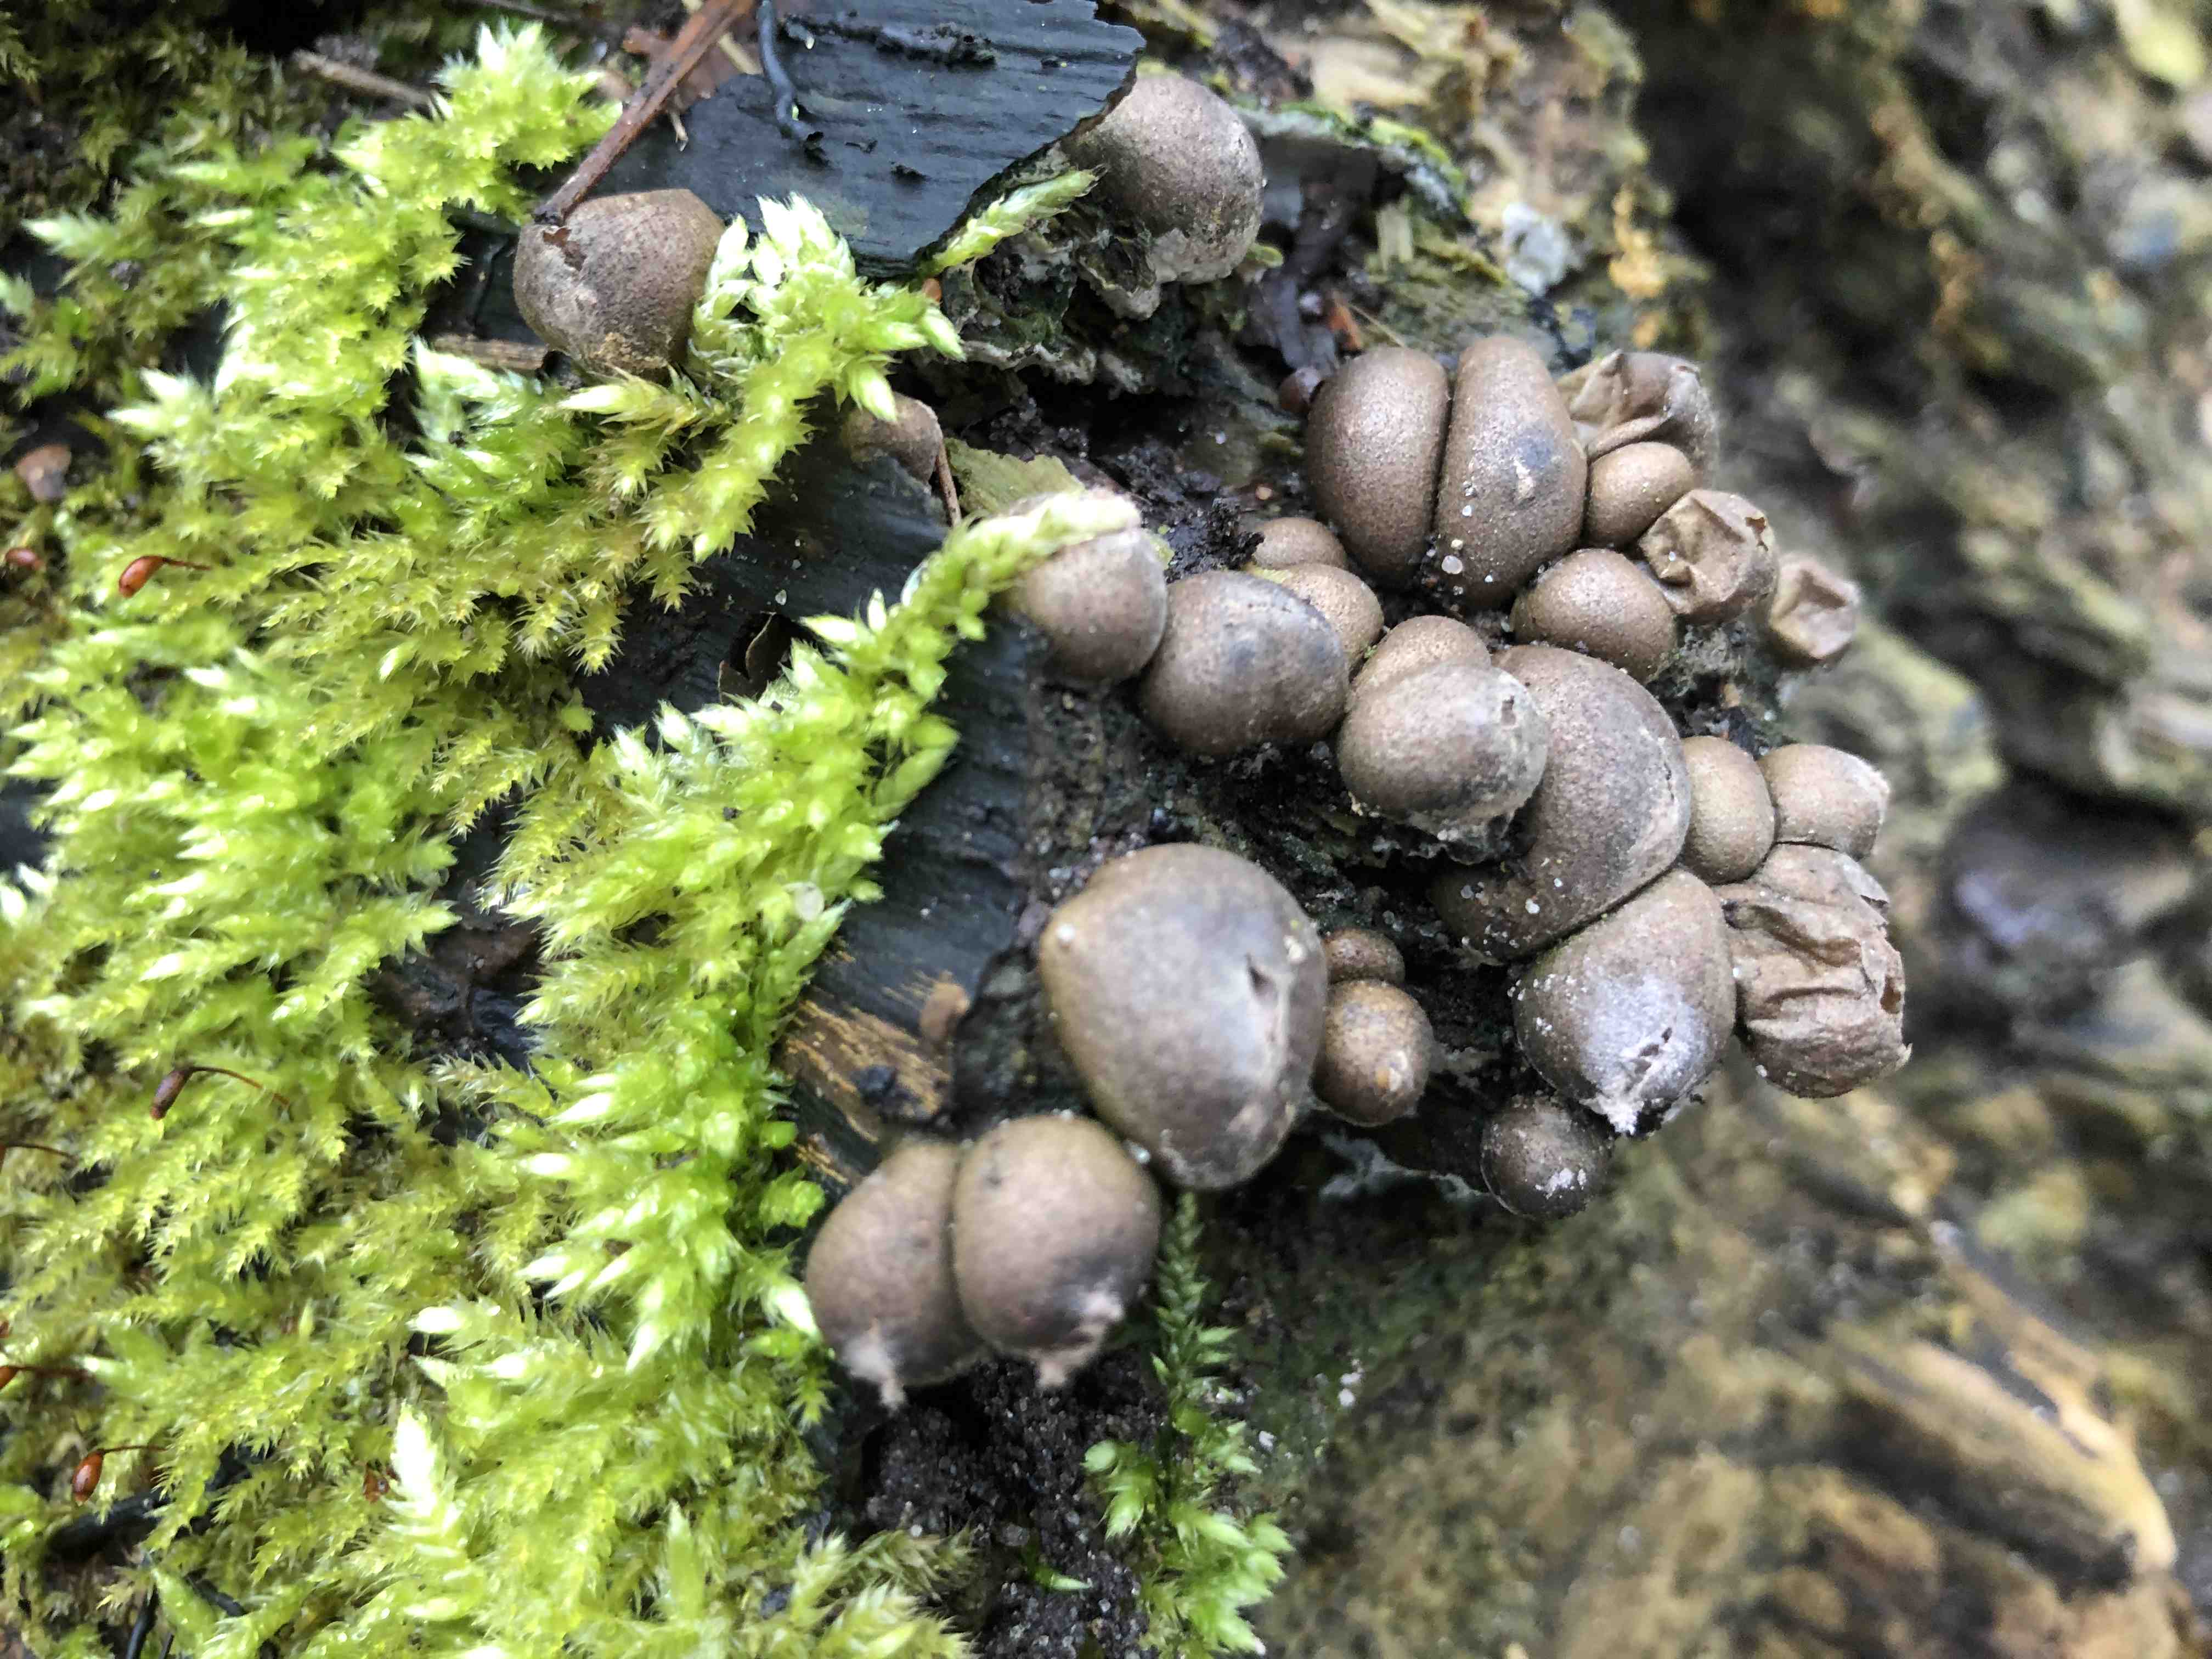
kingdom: Protozoa
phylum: Mycetozoa
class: Myxomycetes
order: Cribrariales
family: Tubiferaceae
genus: Lycogala
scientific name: Lycogala epidendrum
